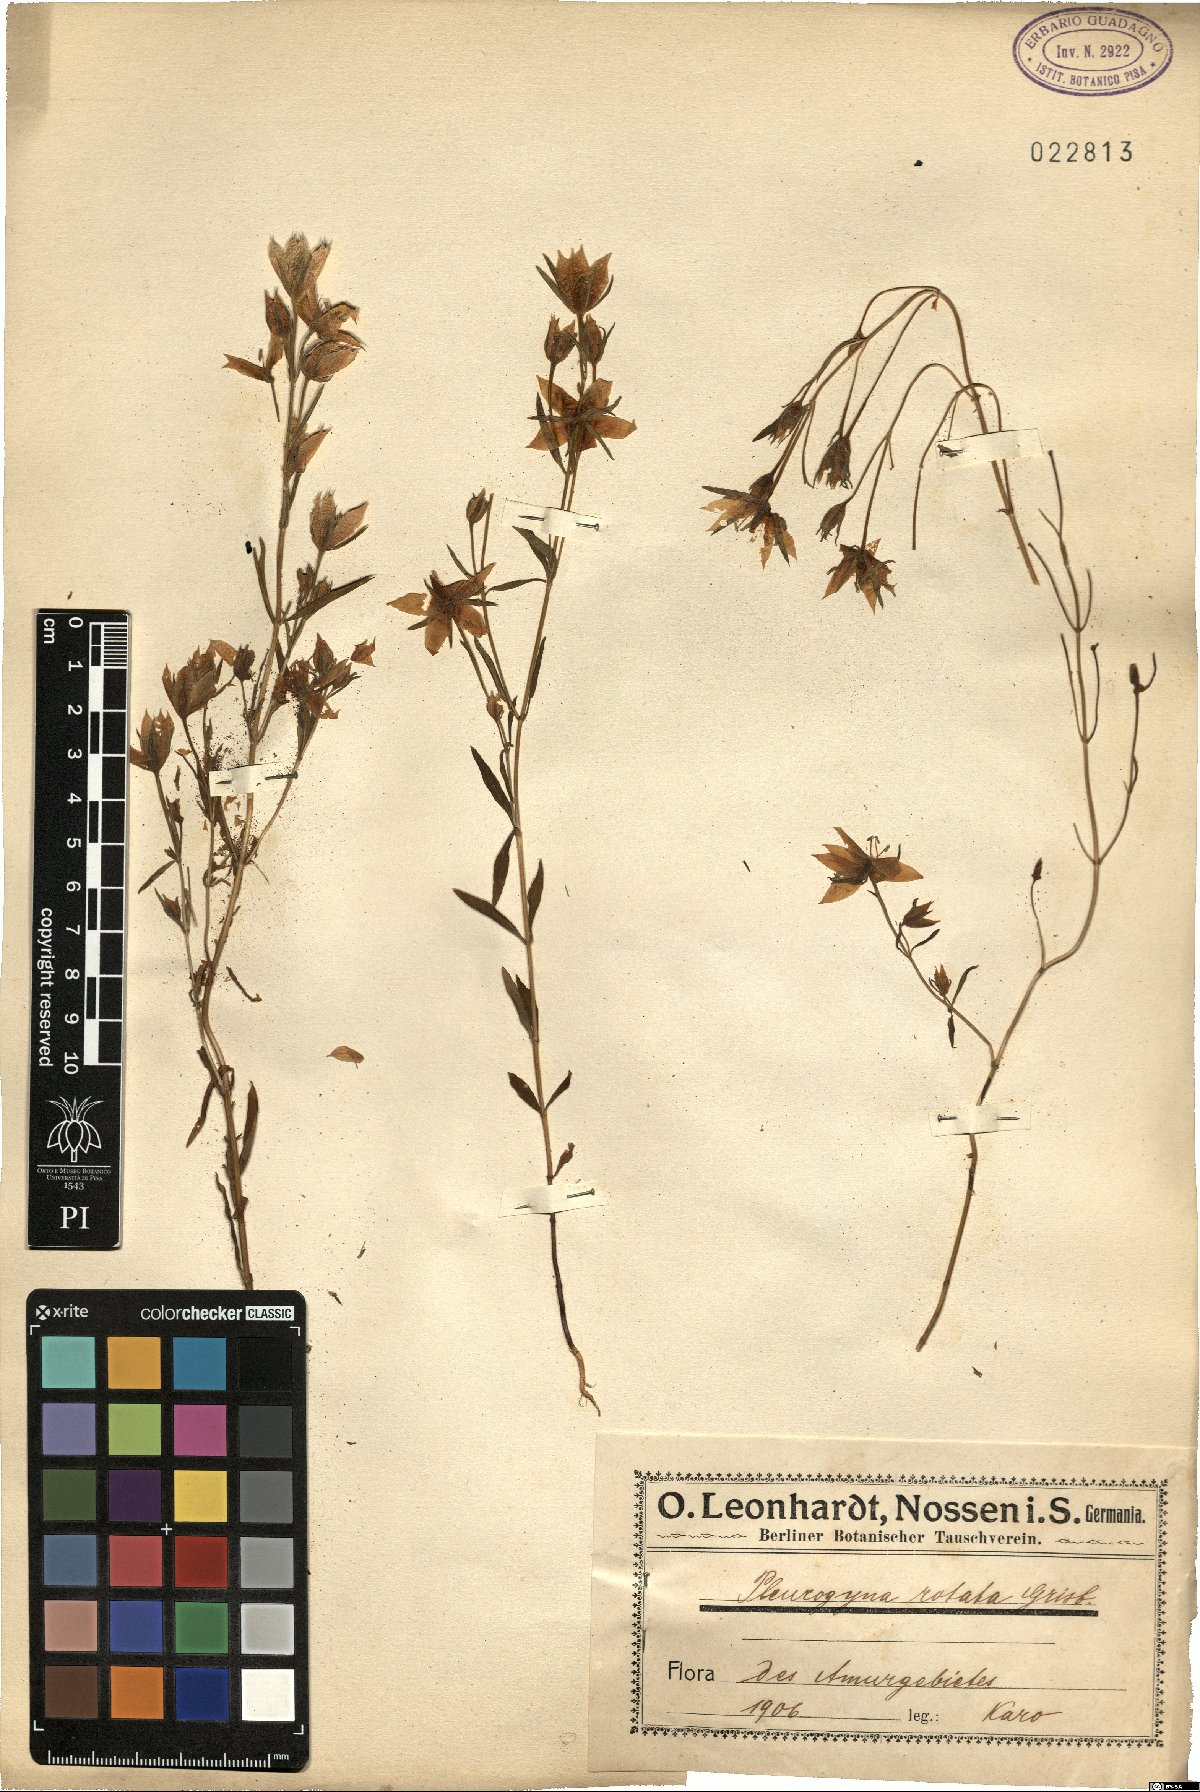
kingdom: Plantae
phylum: Tracheophyta
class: Magnoliopsida
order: Gentianales
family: Gentianaceae
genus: Lomatogonium
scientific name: Lomatogonium rotatum
